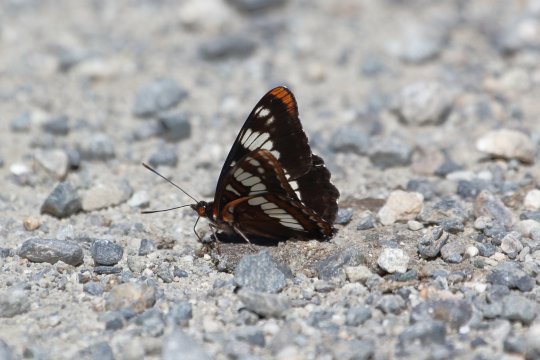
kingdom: Animalia
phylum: Arthropoda
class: Insecta
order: Lepidoptera
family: Nymphalidae
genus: Limenitis
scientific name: Limenitis lorquini
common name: Lorquin's Admiral
